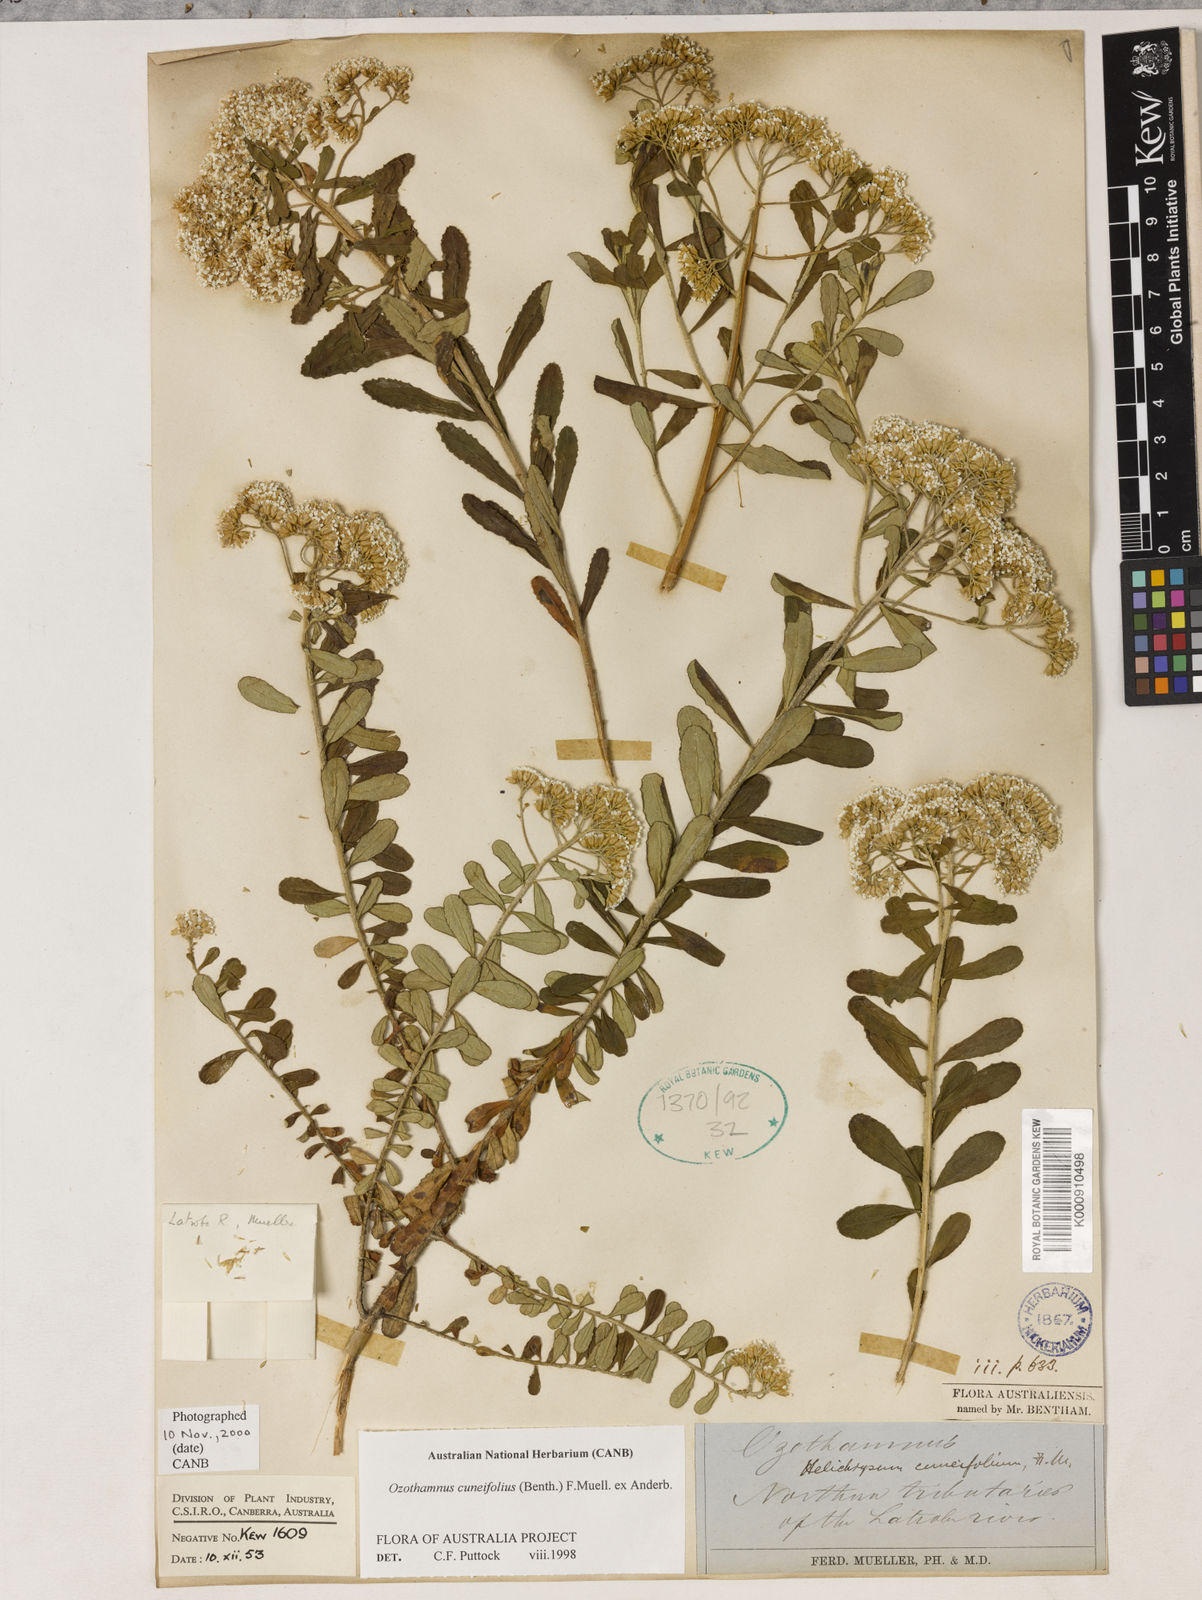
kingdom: Plantae
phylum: Tracheophyta
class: Magnoliopsida
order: Asterales
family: Asteraceae
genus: Ozothamnus
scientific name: Ozothamnus cuneifolius
